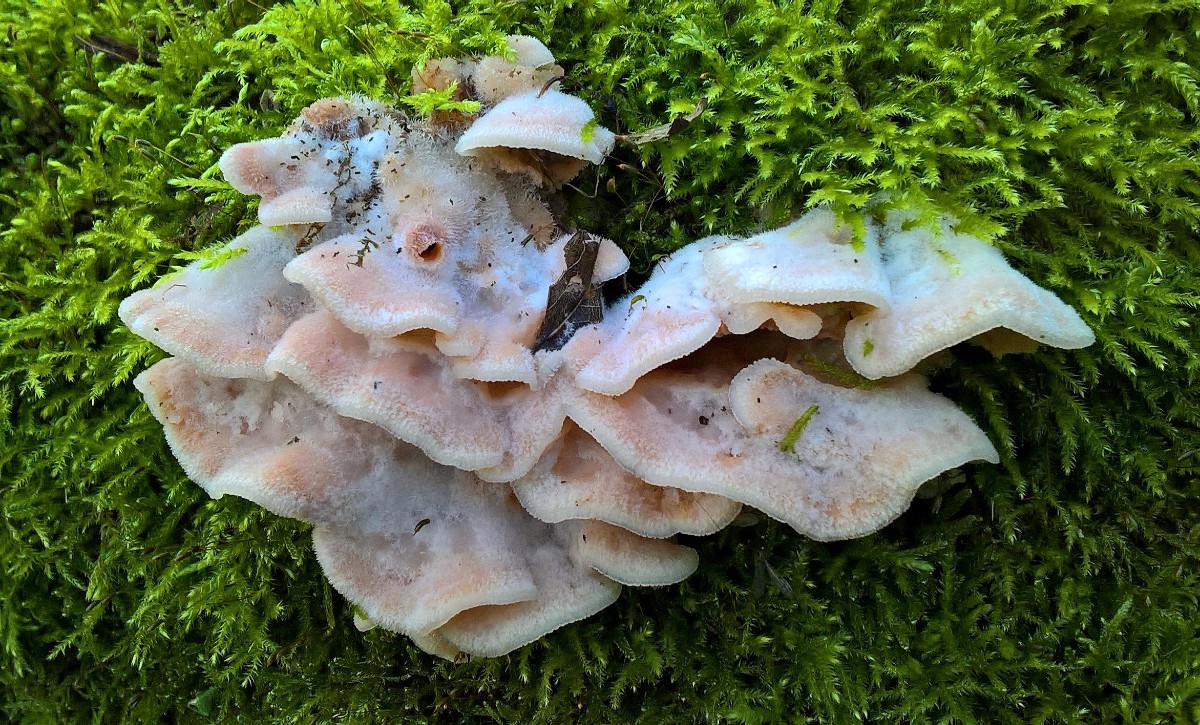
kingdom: Fungi
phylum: Basidiomycota
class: Agaricomycetes
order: Polyporales
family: Meruliaceae
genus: Phlebia
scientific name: Phlebia tremellosa
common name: bævrende åresvamp
